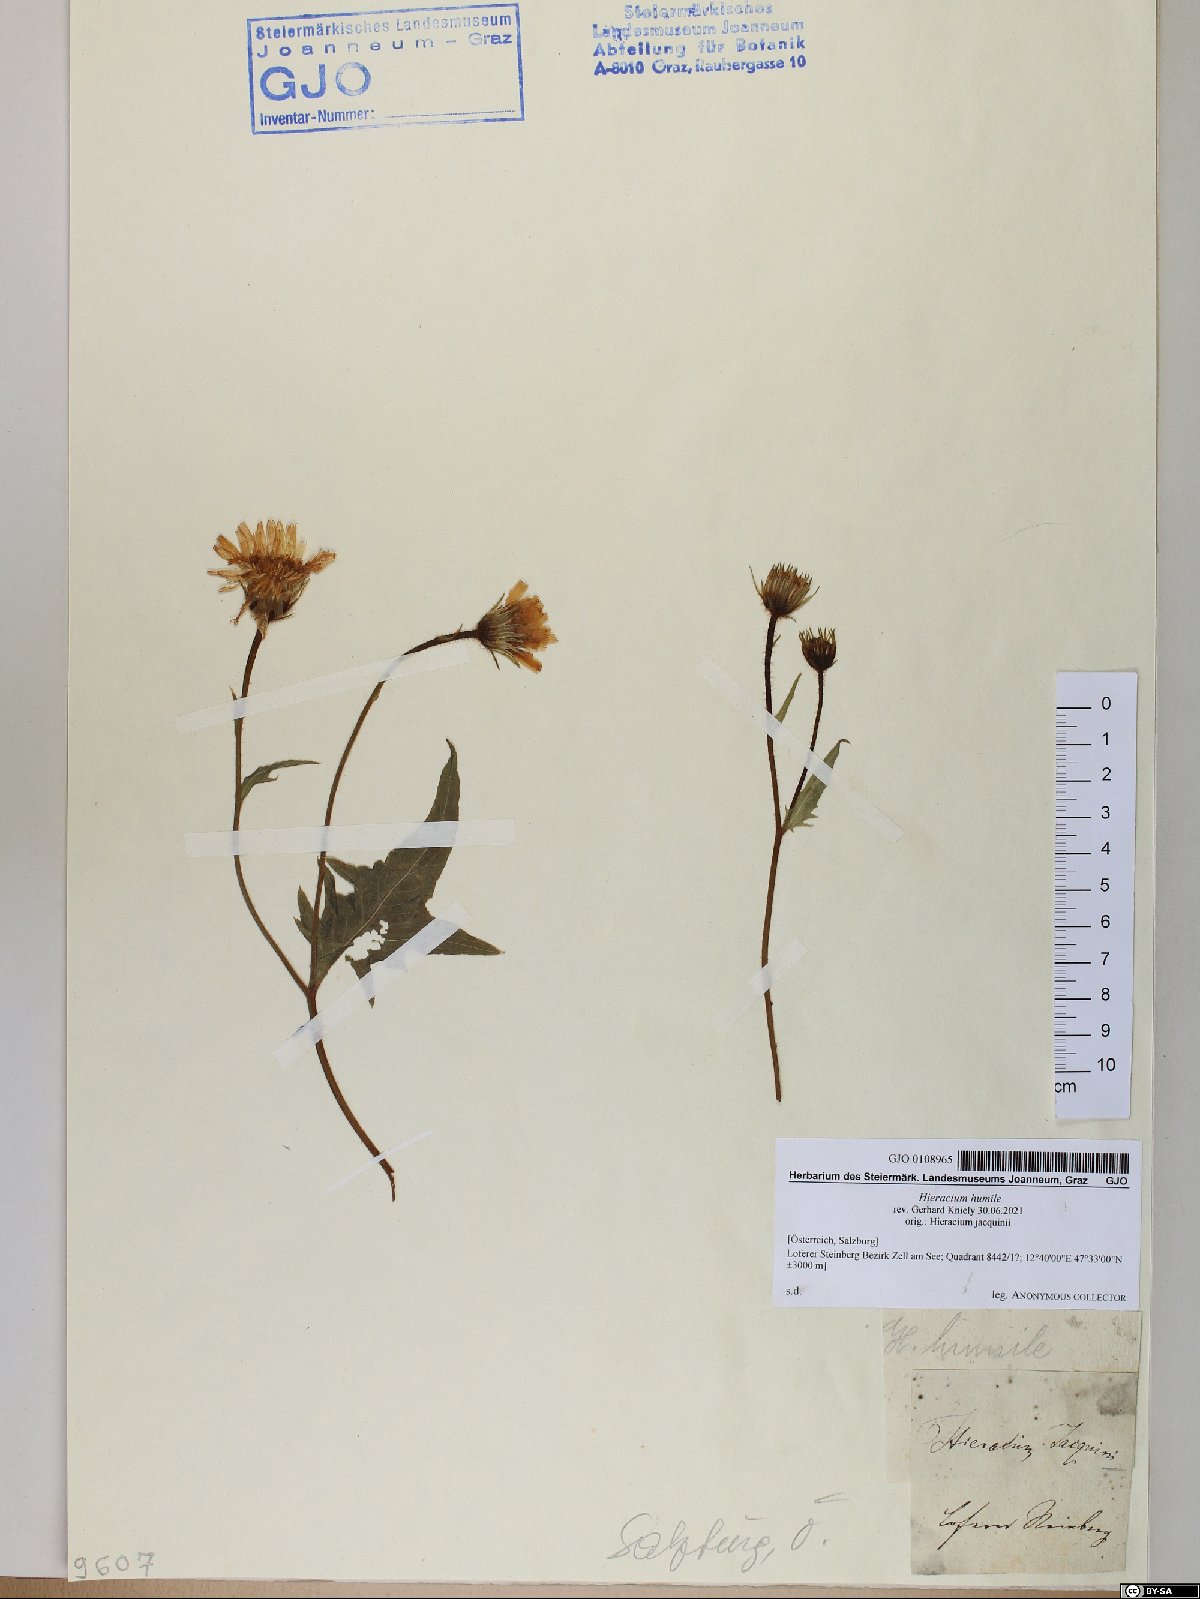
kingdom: Plantae
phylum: Tracheophyta
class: Magnoliopsida
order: Asterales
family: Asteraceae
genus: Hieracium
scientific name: Hieracium humile
